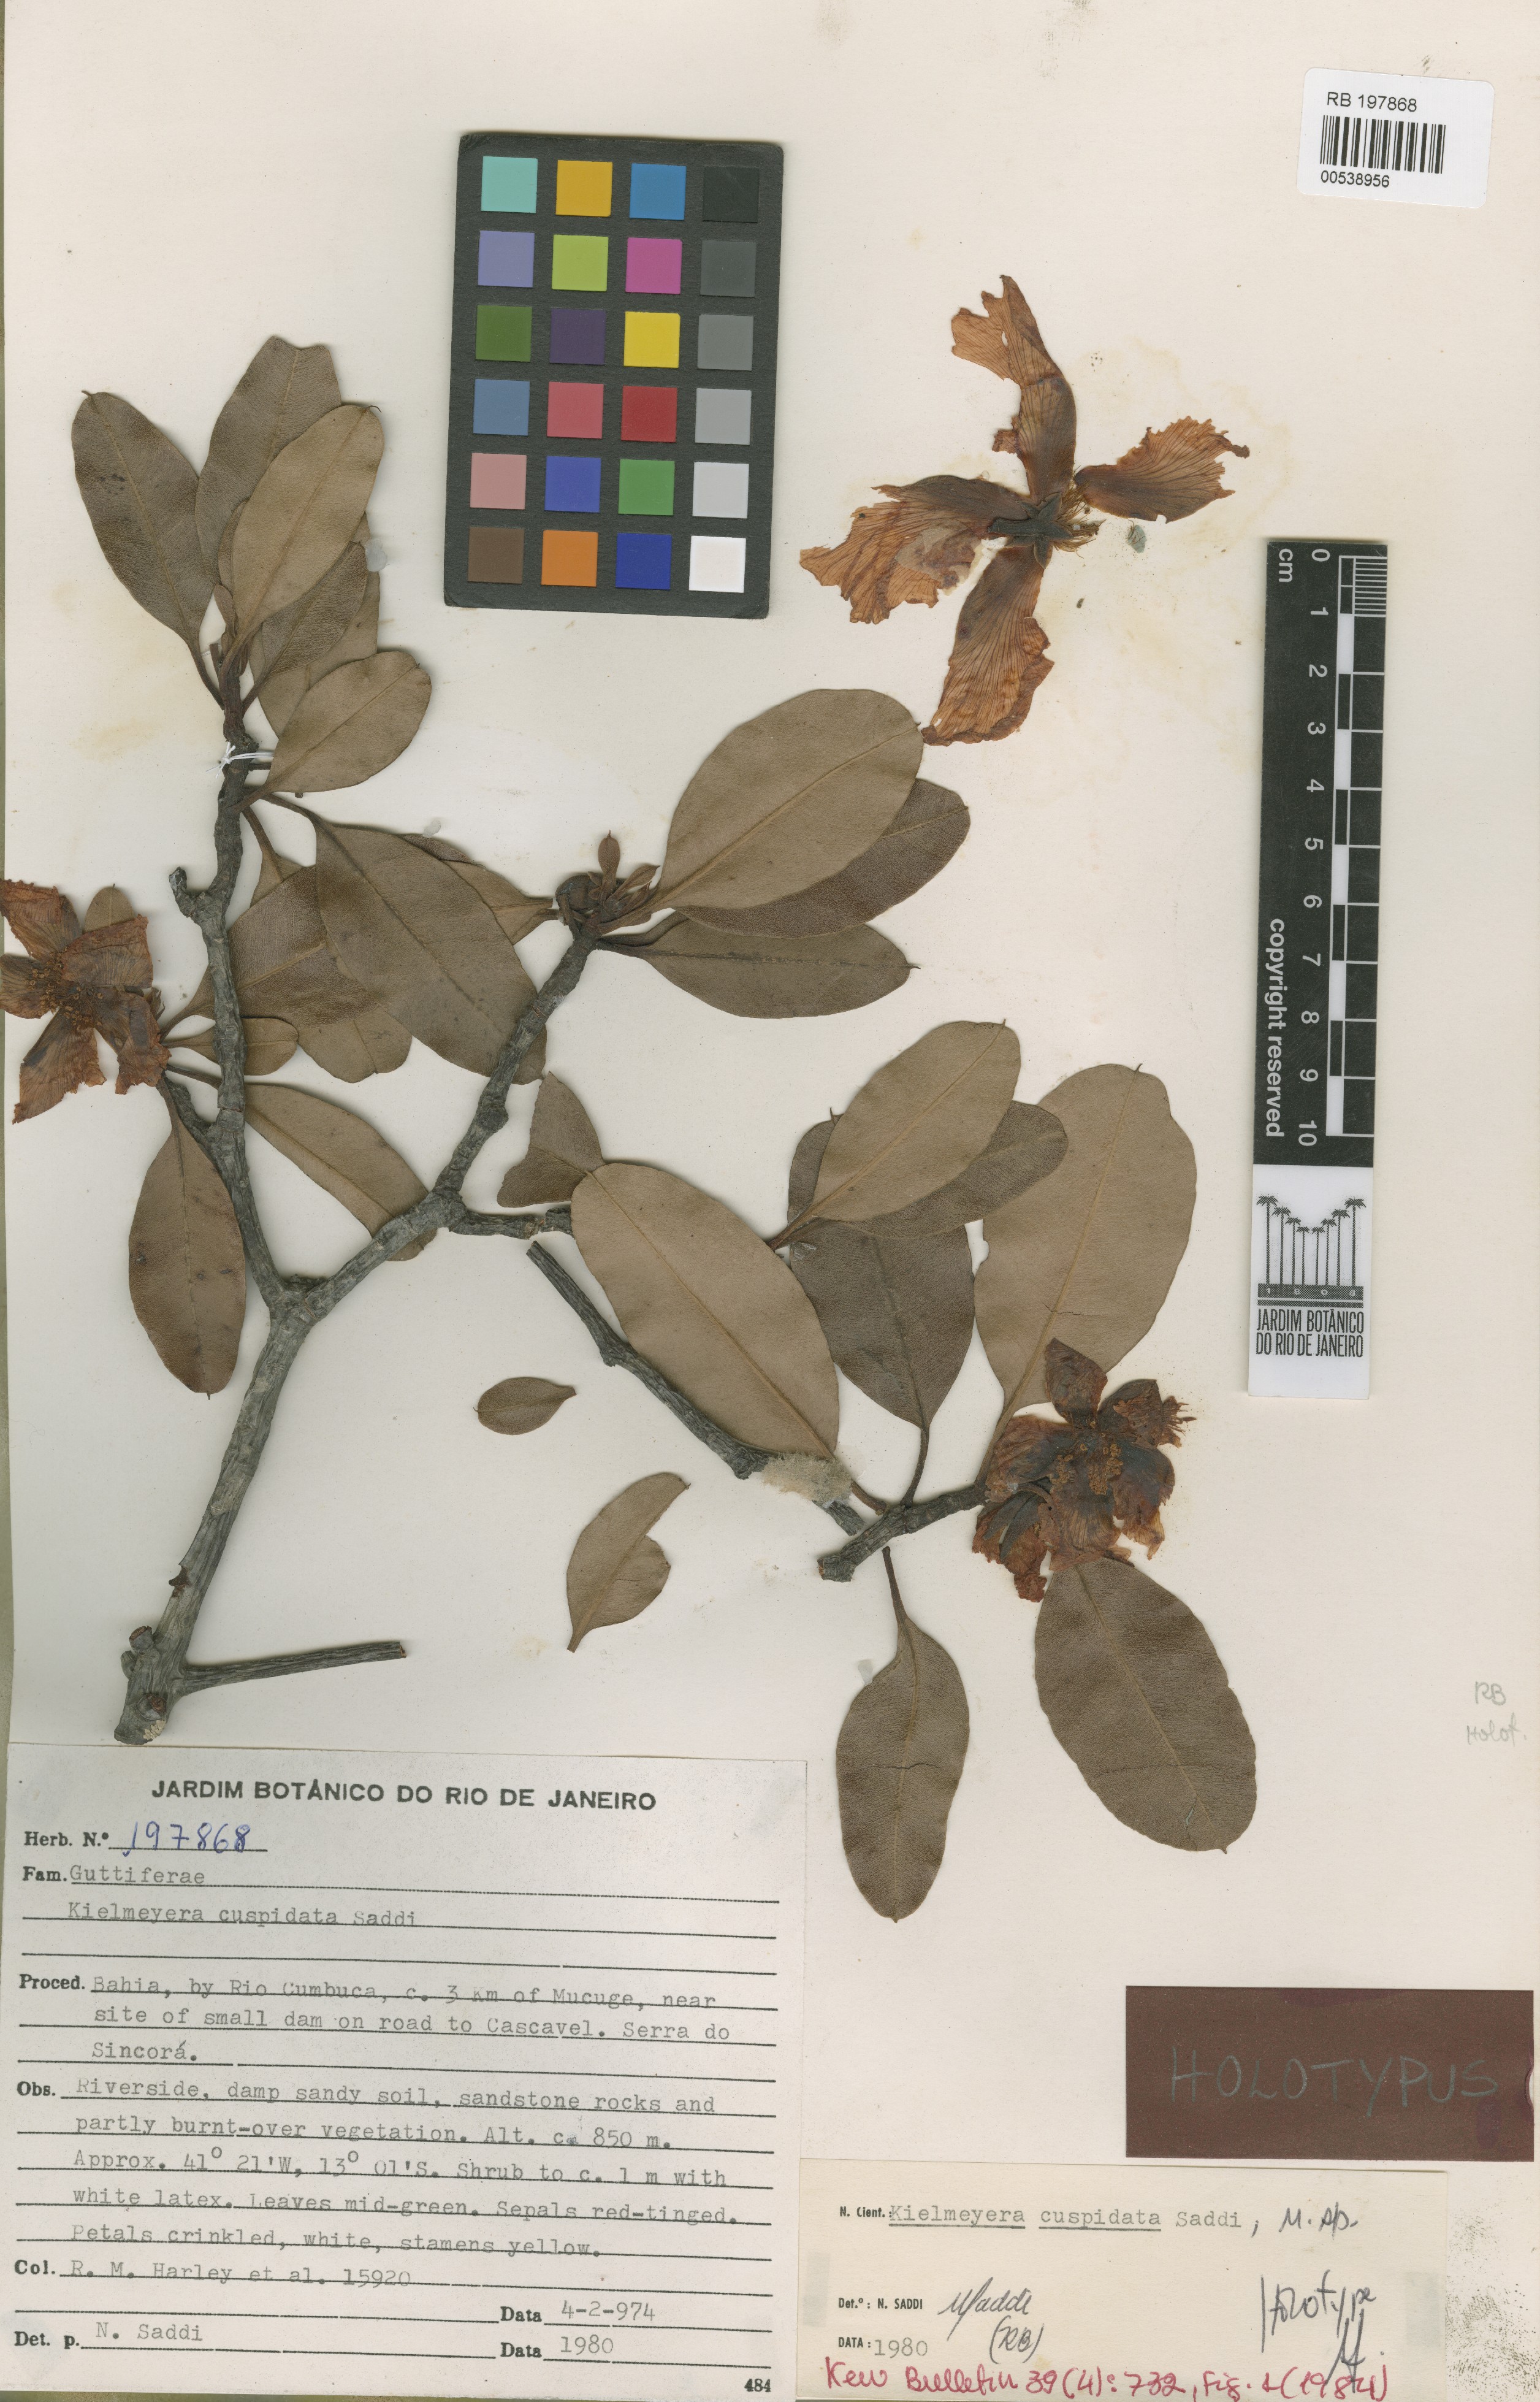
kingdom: Plantae
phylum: Tracheophyta
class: Magnoliopsida
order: Malpighiales
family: Calophyllaceae
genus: Kielmeyera
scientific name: Kielmeyera cuspidata
